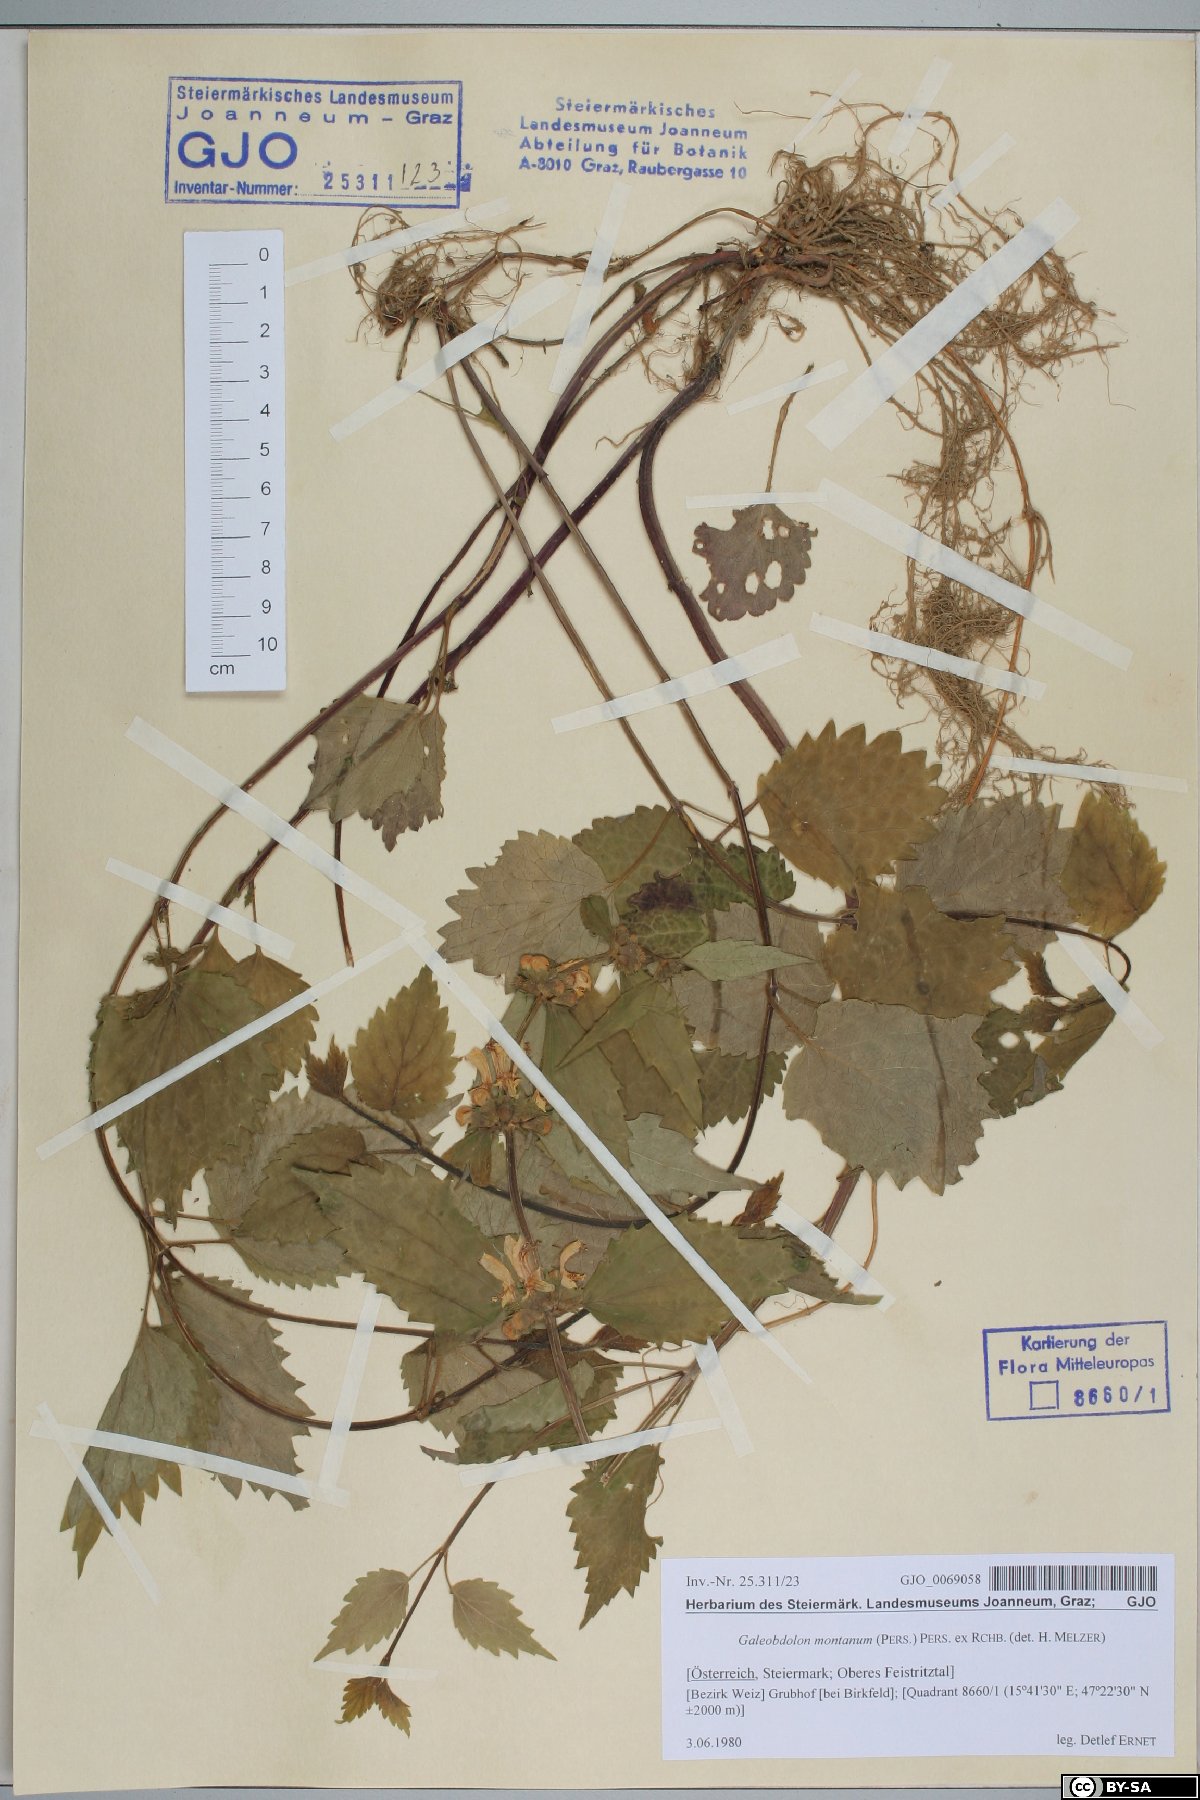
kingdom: Plantae
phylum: Tracheophyta
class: Magnoliopsida
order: Lamiales
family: Lamiaceae
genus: Lamium
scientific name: Lamium galeobdolon
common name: Yellow archangel
